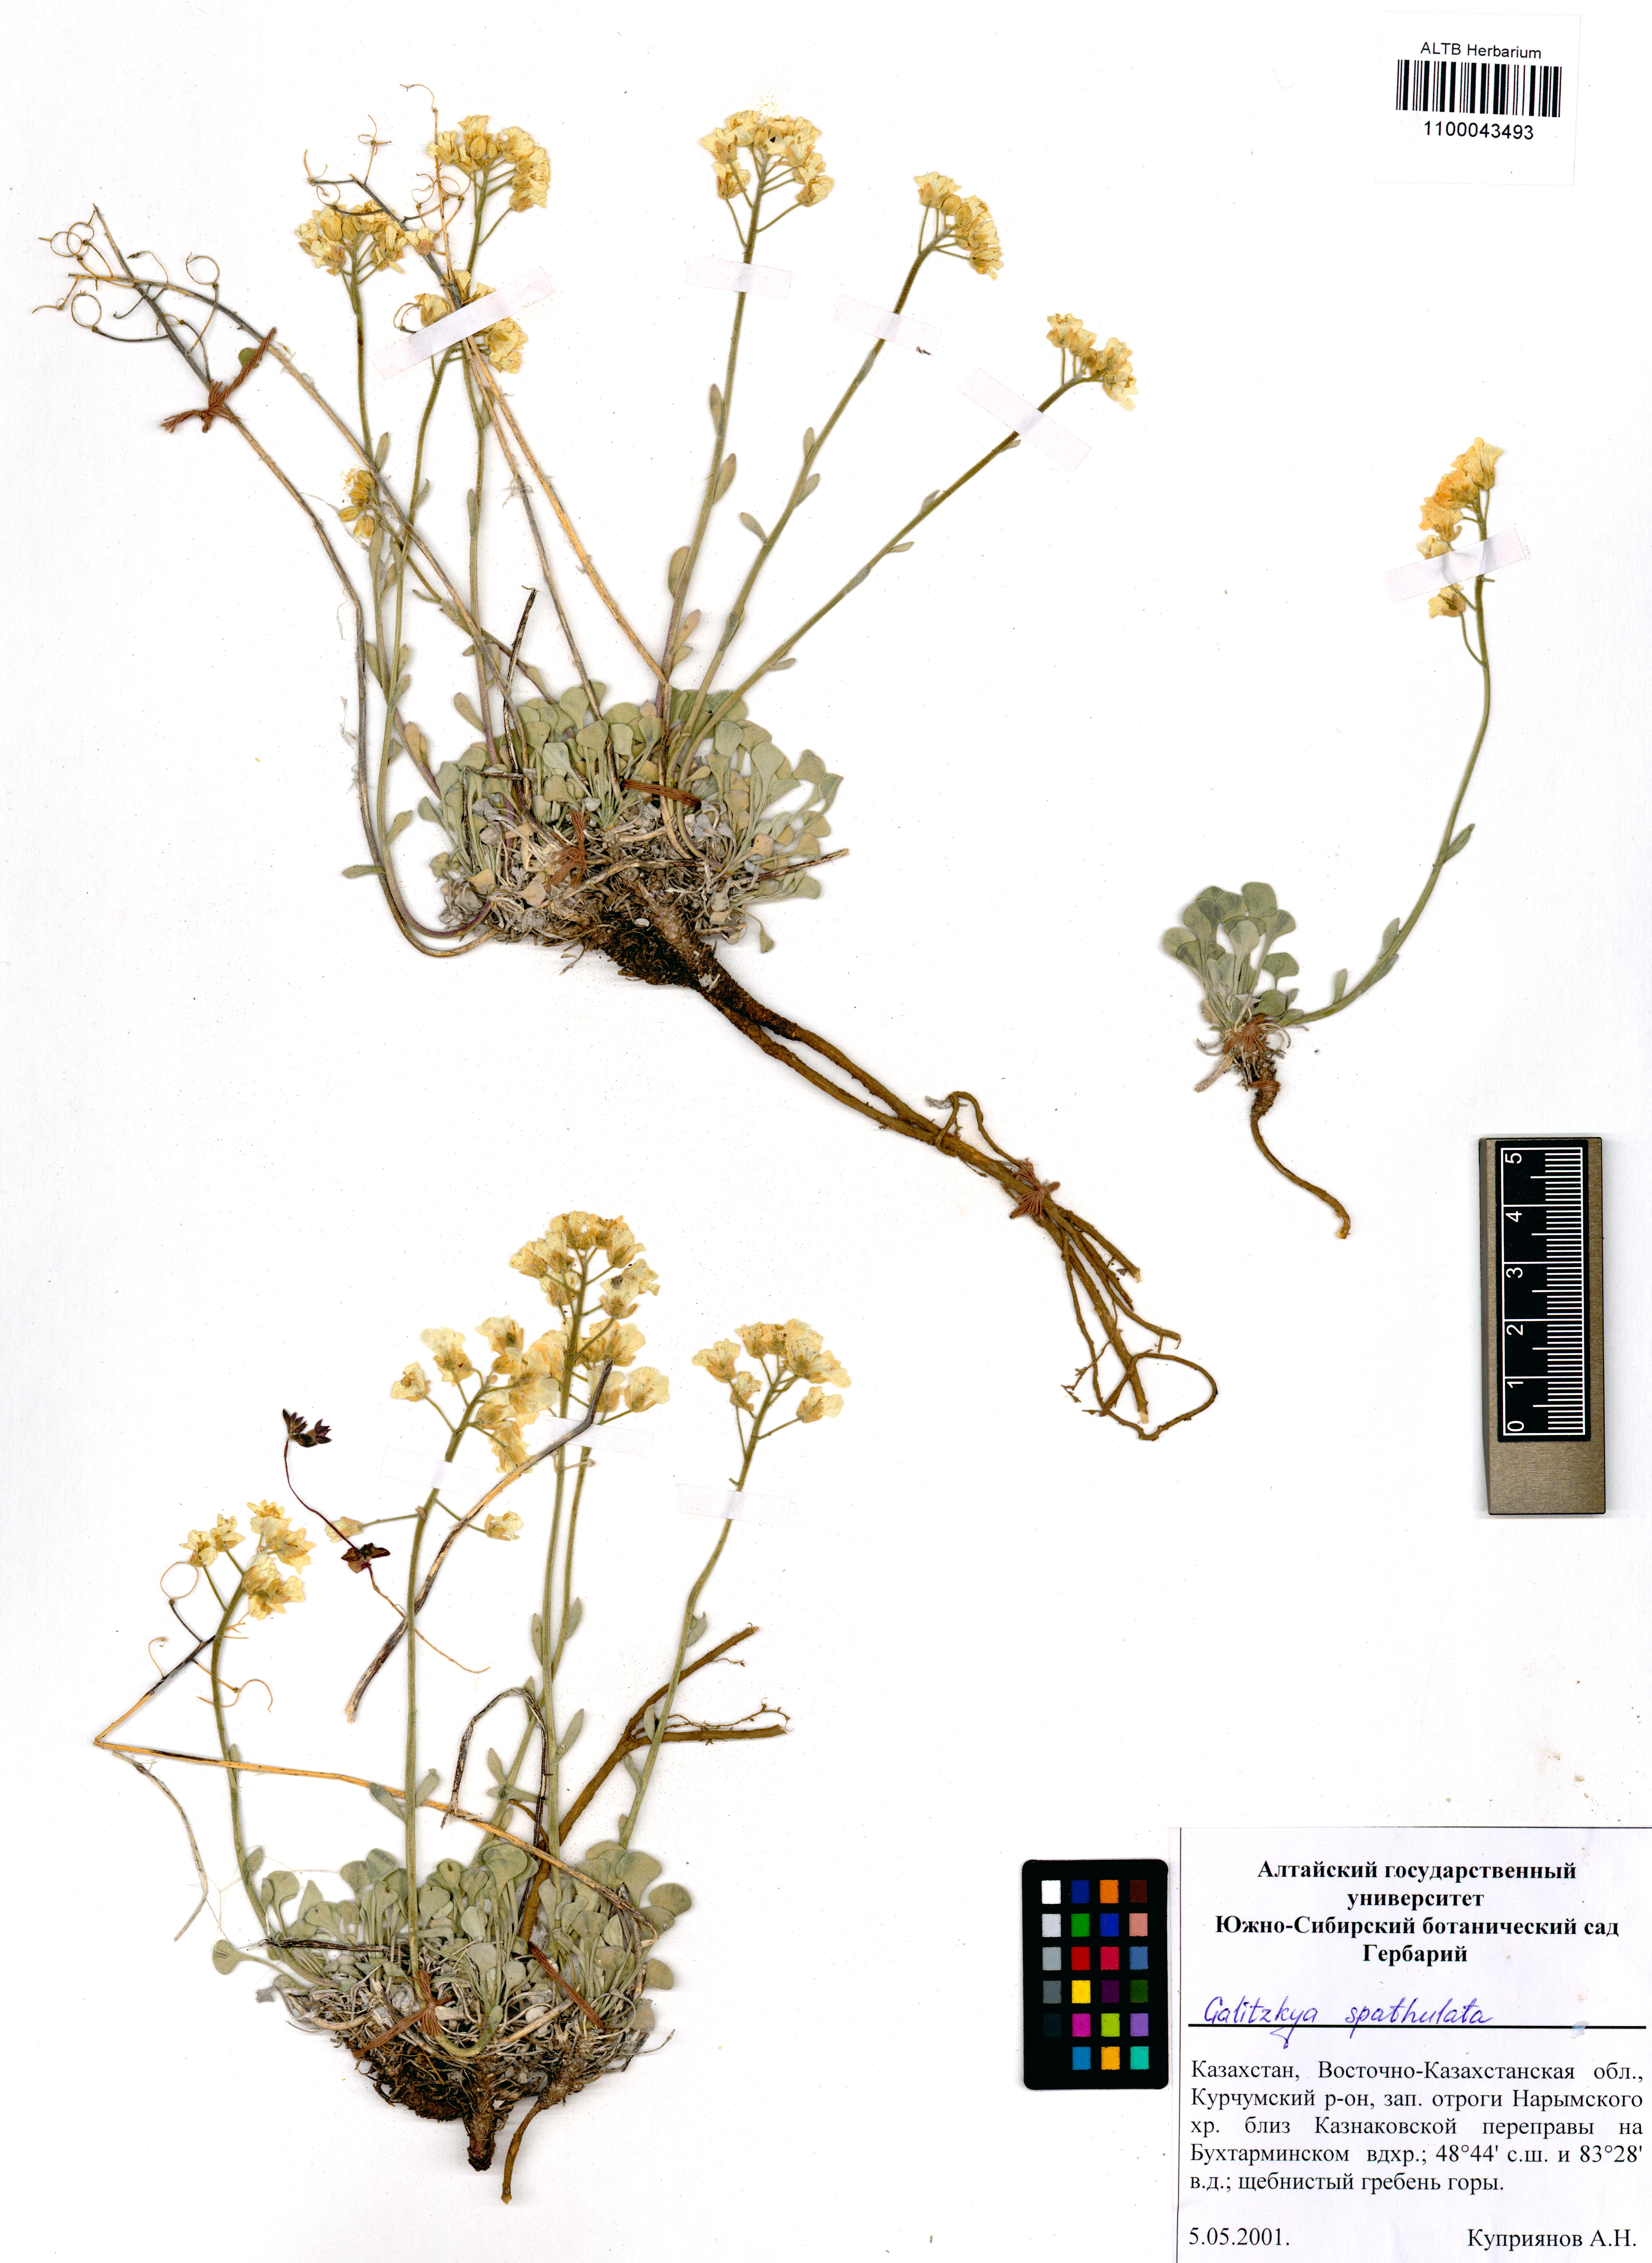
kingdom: Plantae
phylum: Tracheophyta
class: Magnoliopsida
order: Brassicales
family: Brassicaceae
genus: Galitzkya
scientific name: Galitzkya spathulata
